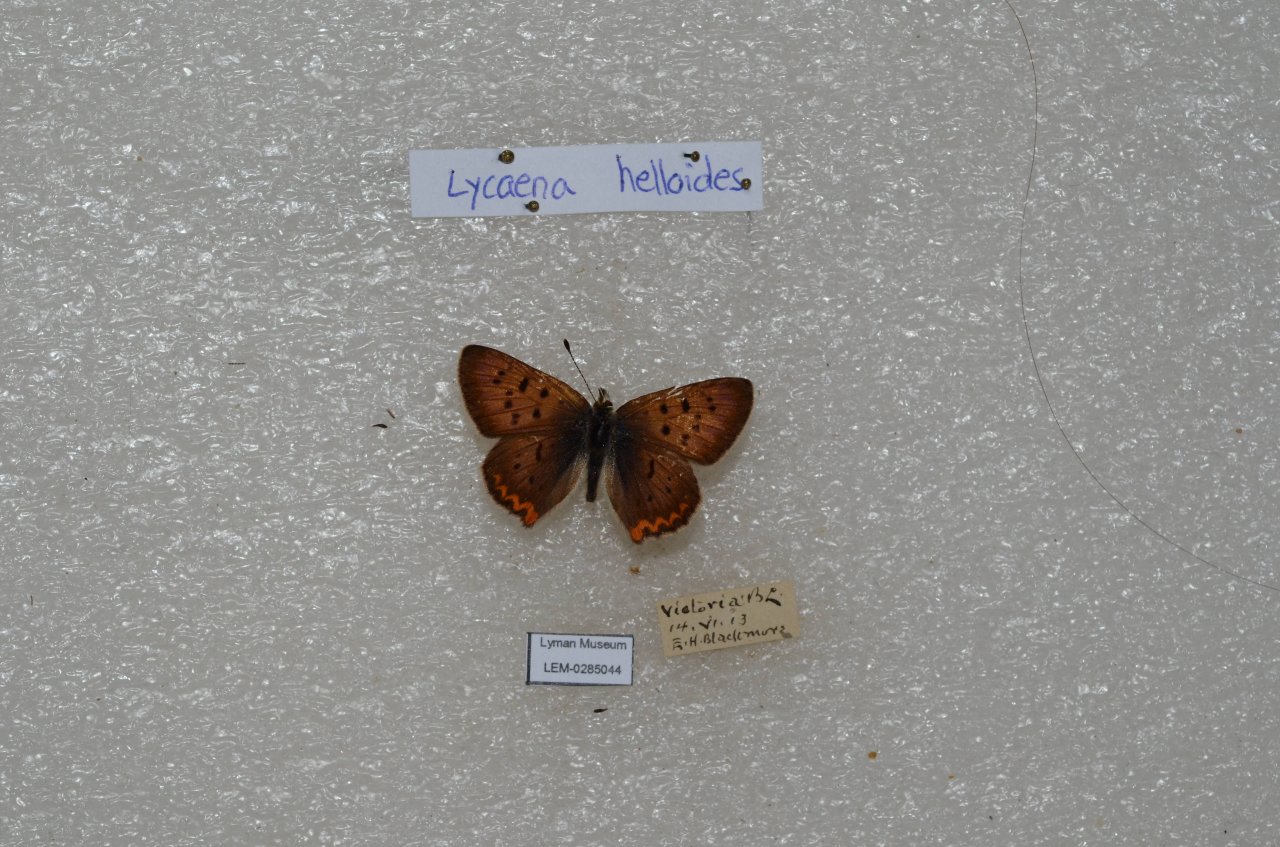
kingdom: Animalia
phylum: Arthropoda
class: Insecta
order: Lepidoptera
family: Sesiidae
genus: Sesia
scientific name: Sesia Lycaena helloides
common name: Purplish Copper
